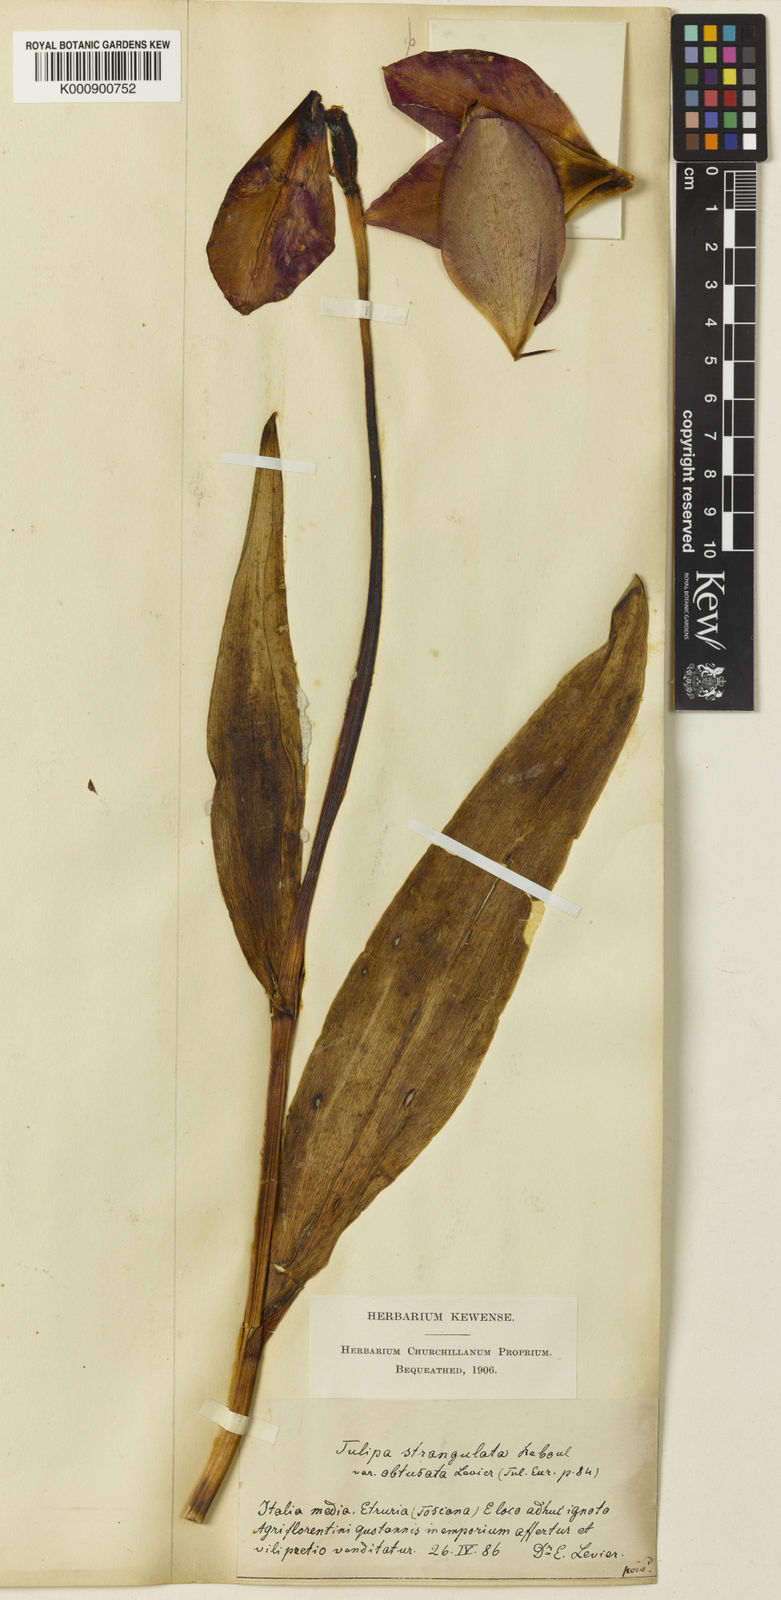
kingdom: Plantae
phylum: Tracheophyta
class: Liliopsida
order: Liliales
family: Liliaceae
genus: Tulipa
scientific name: Tulipa gesneriana
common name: Garden tulip
